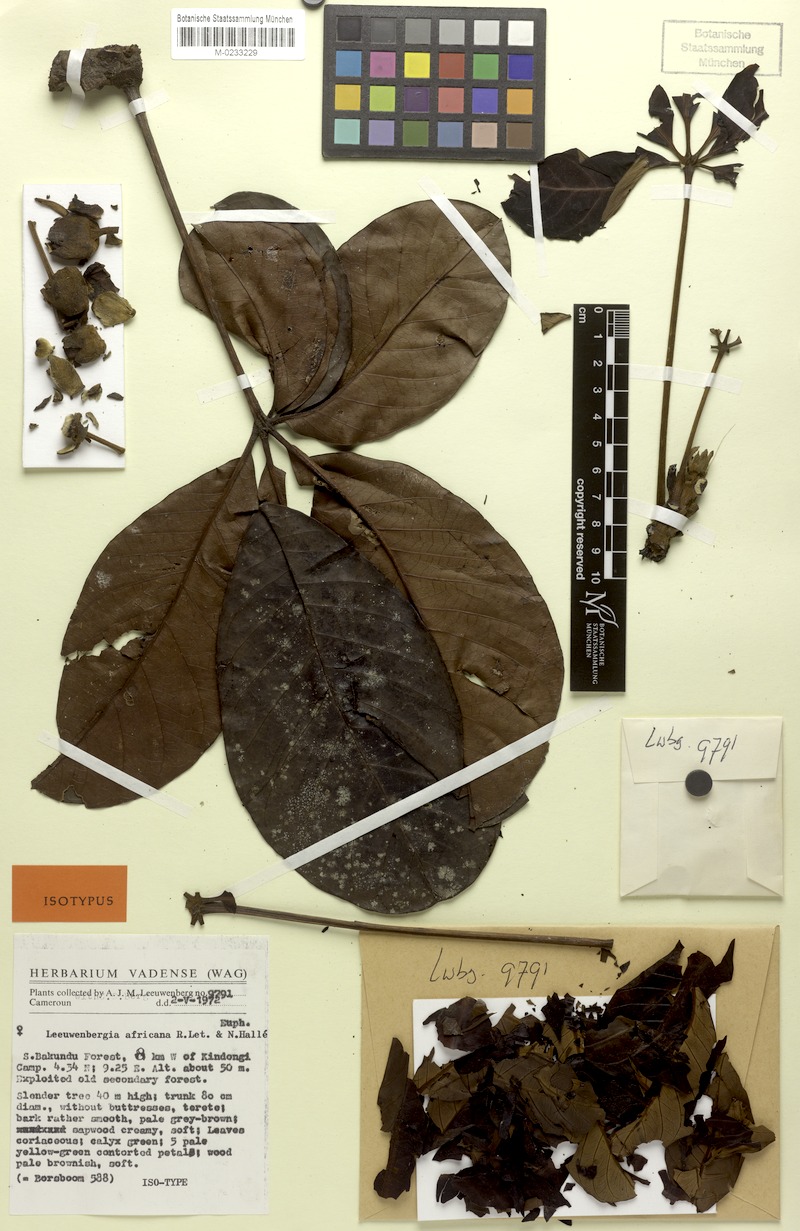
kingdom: Plantae
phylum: Tracheophyta
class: Magnoliopsida
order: Malpighiales
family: Euphorbiaceae
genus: Leeuwenbergia
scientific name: Leeuwenbergia africana
